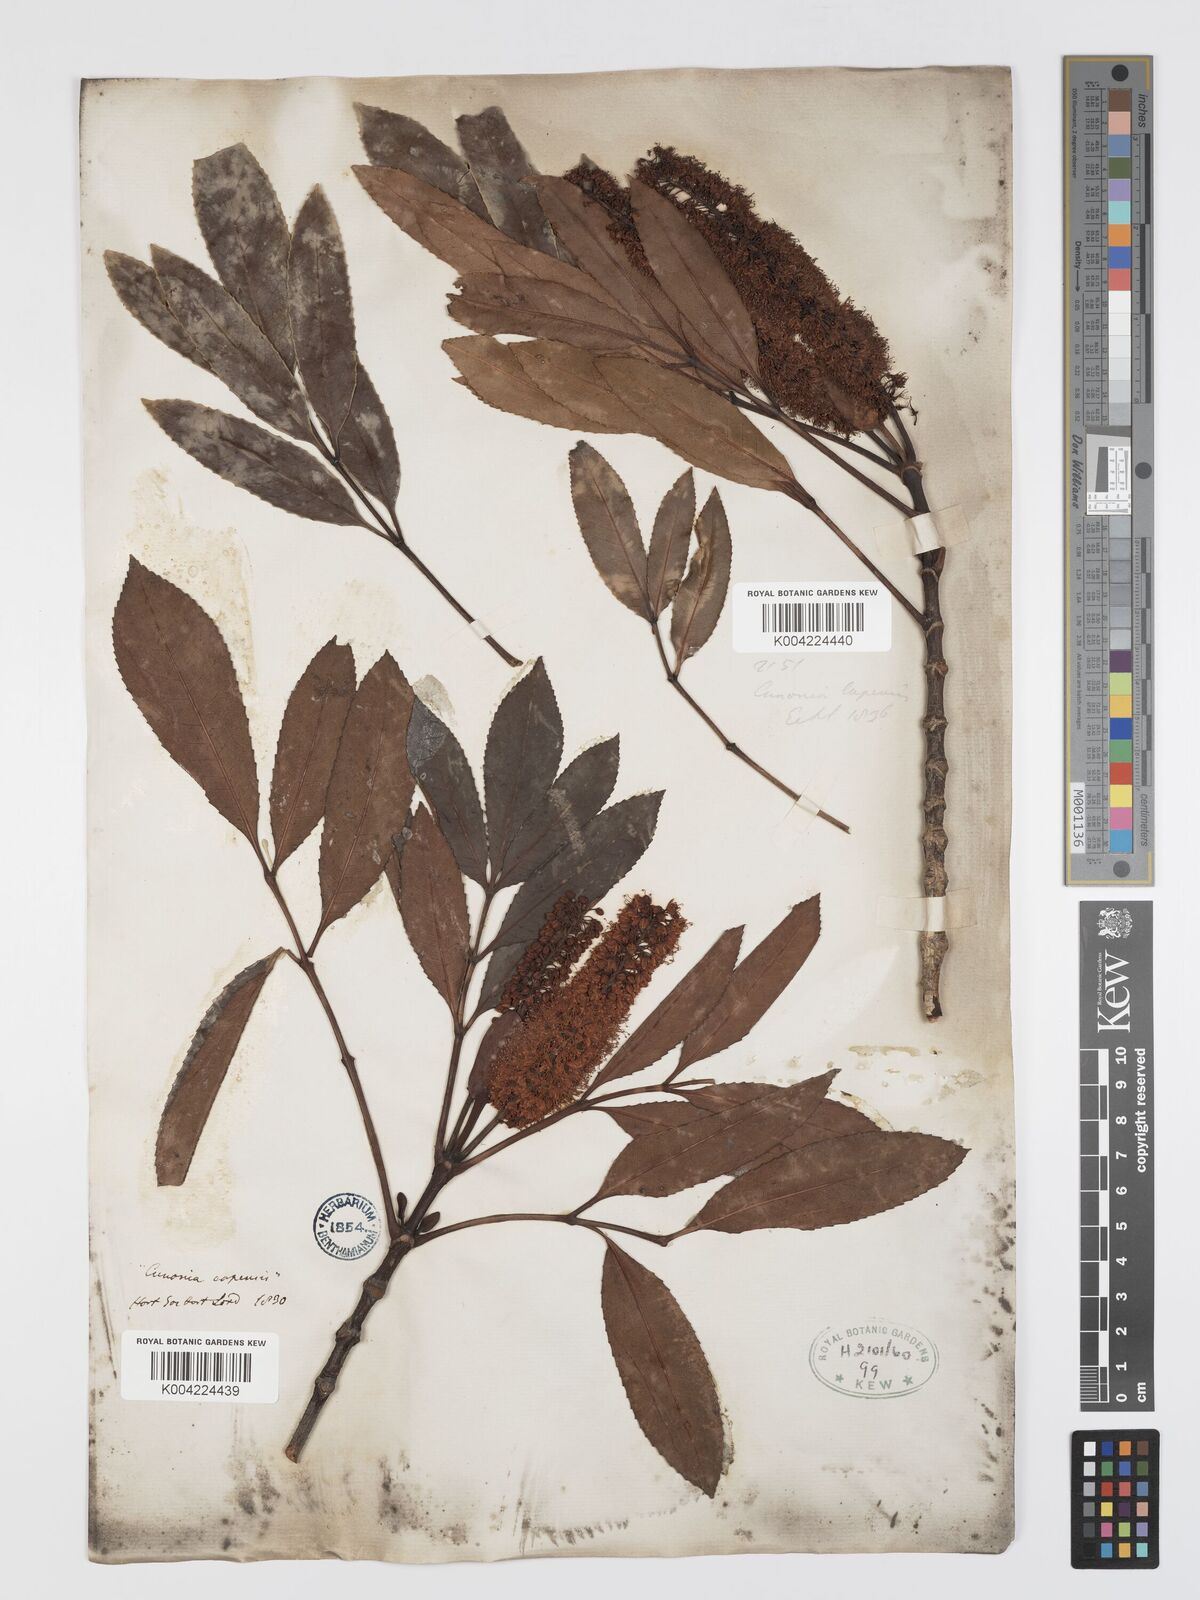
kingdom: Plantae
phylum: Tracheophyta
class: Magnoliopsida
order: Oxalidales
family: Cunoniaceae
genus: Cunonia
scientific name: Cunonia capensis
